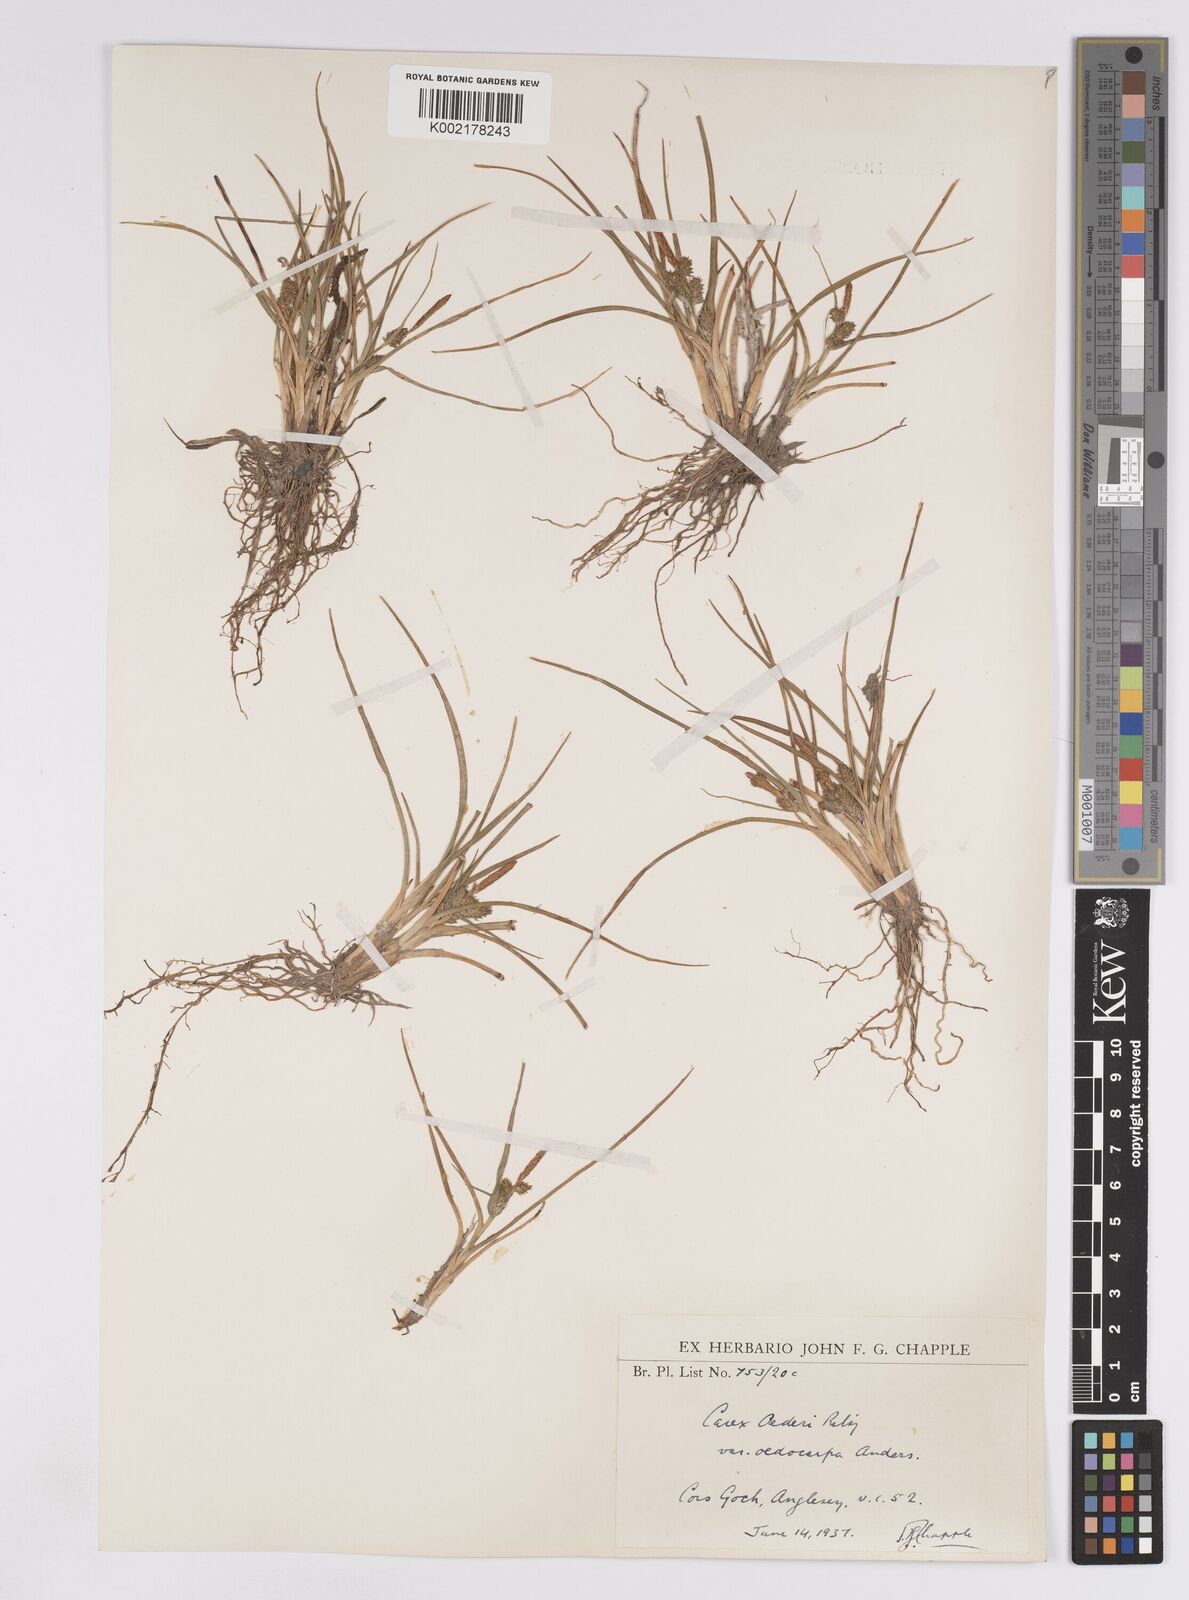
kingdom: Plantae
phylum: Tracheophyta
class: Liliopsida
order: Poales
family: Cyperaceae
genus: Carex
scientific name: Carex demissa
